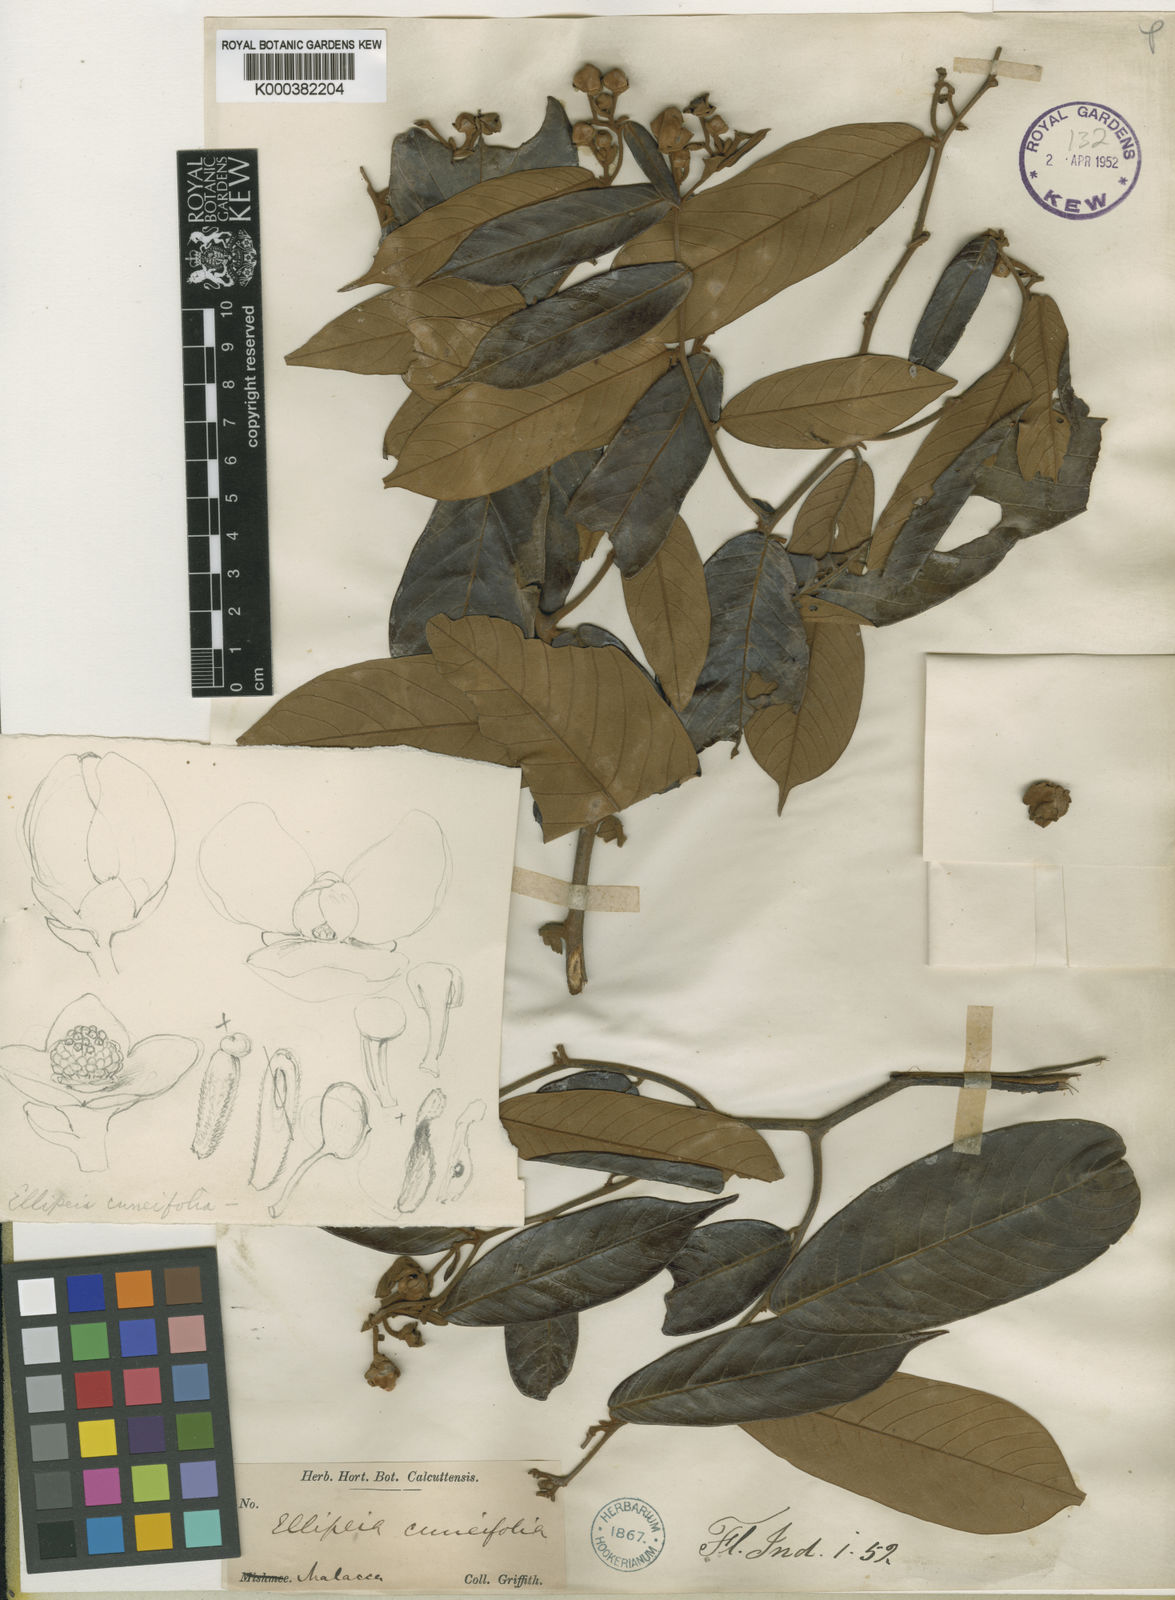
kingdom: Plantae
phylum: Tracheophyta
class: Magnoliopsida
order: Magnoliales
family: Annonaceae
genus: Uvaria
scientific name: Uvaria cuneifolia
